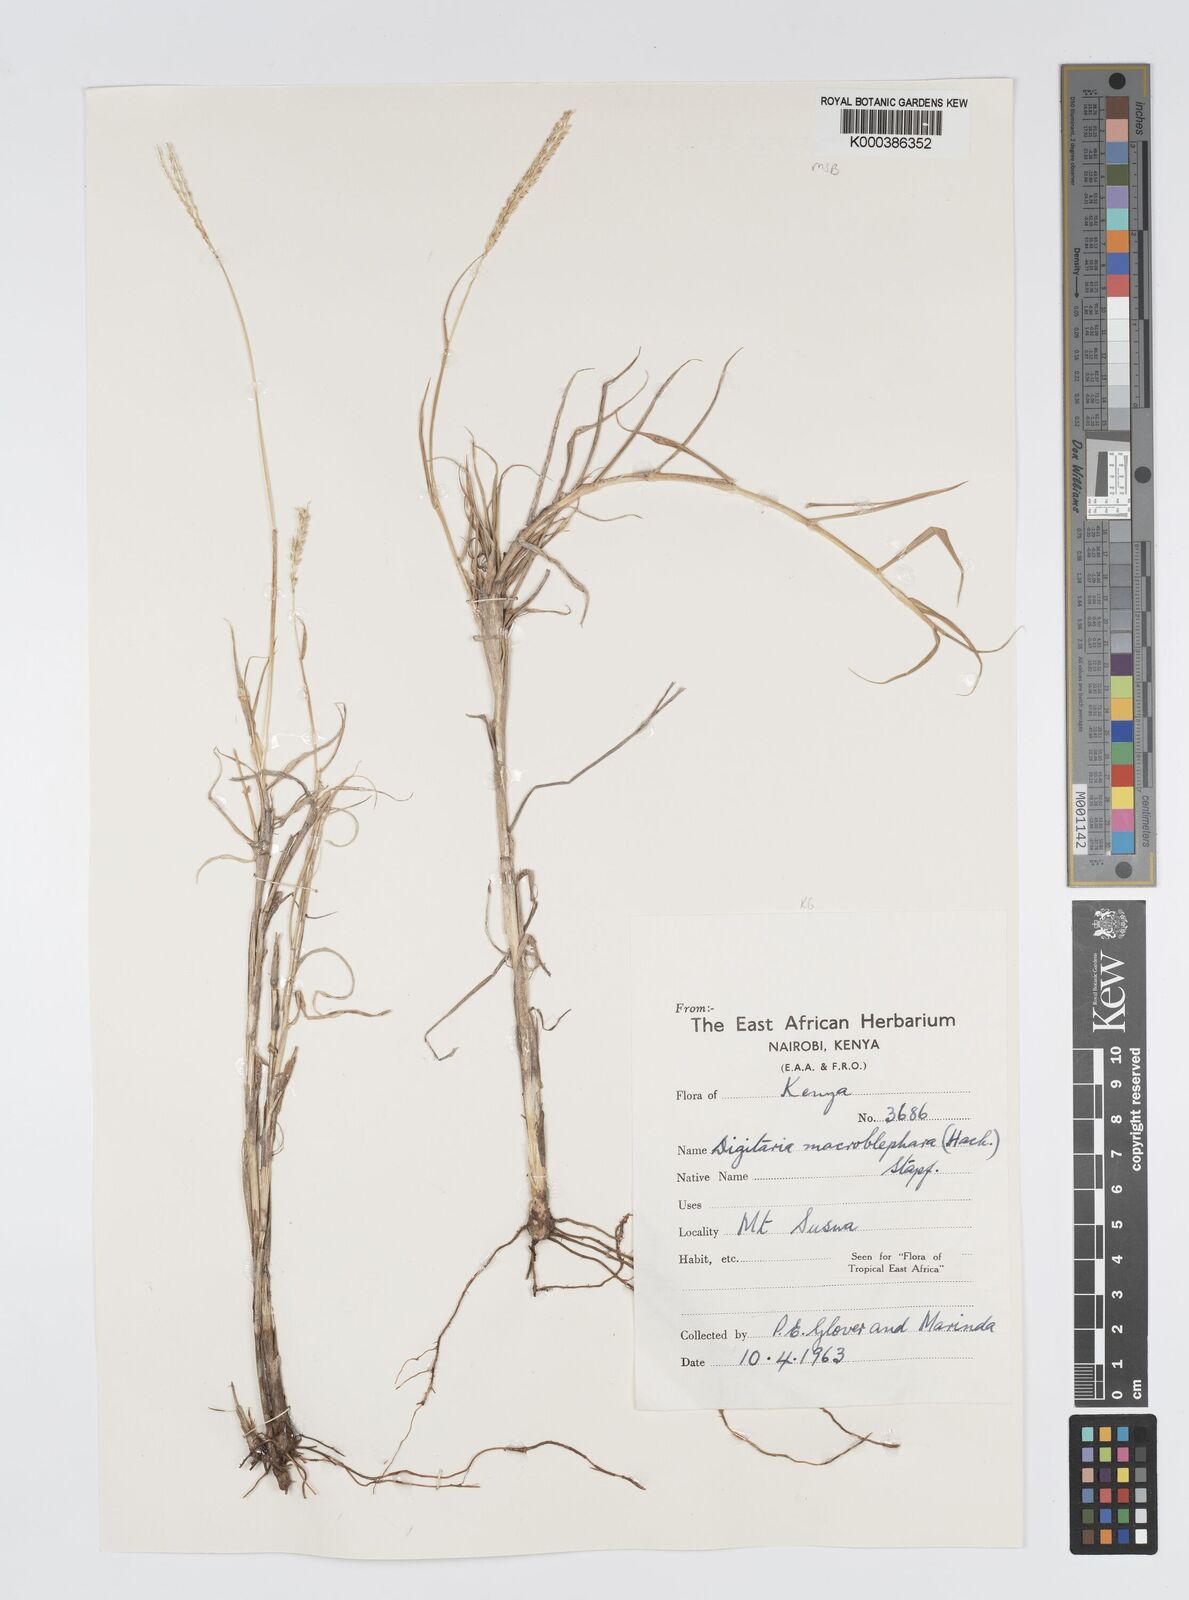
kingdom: Plantae
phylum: Tracheophyta
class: Liliopsida
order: Poales
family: Poaceae
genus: Digitaria
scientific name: Digitaria macroblephara
